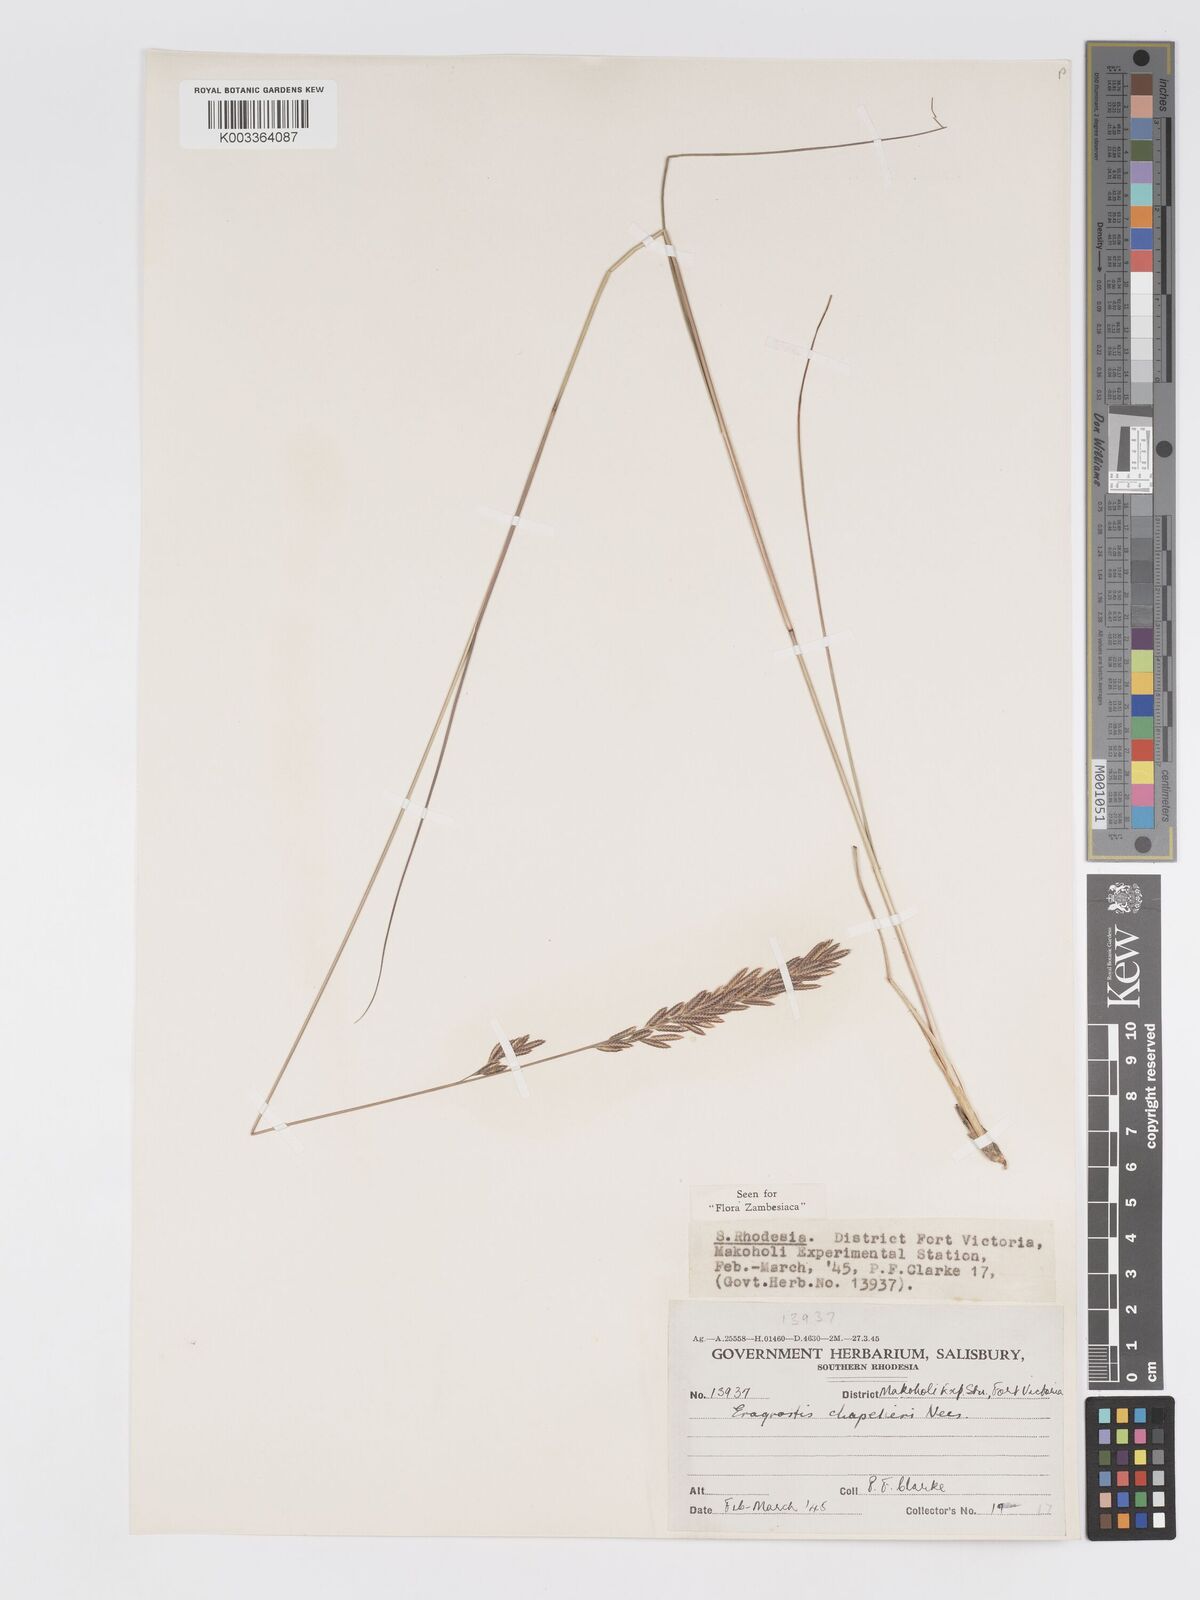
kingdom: Plantae
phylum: Tracheophyta
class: Liliopsida
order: Poales
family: Poaceae
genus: Eragrostis
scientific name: Eragrostis chapelieri
